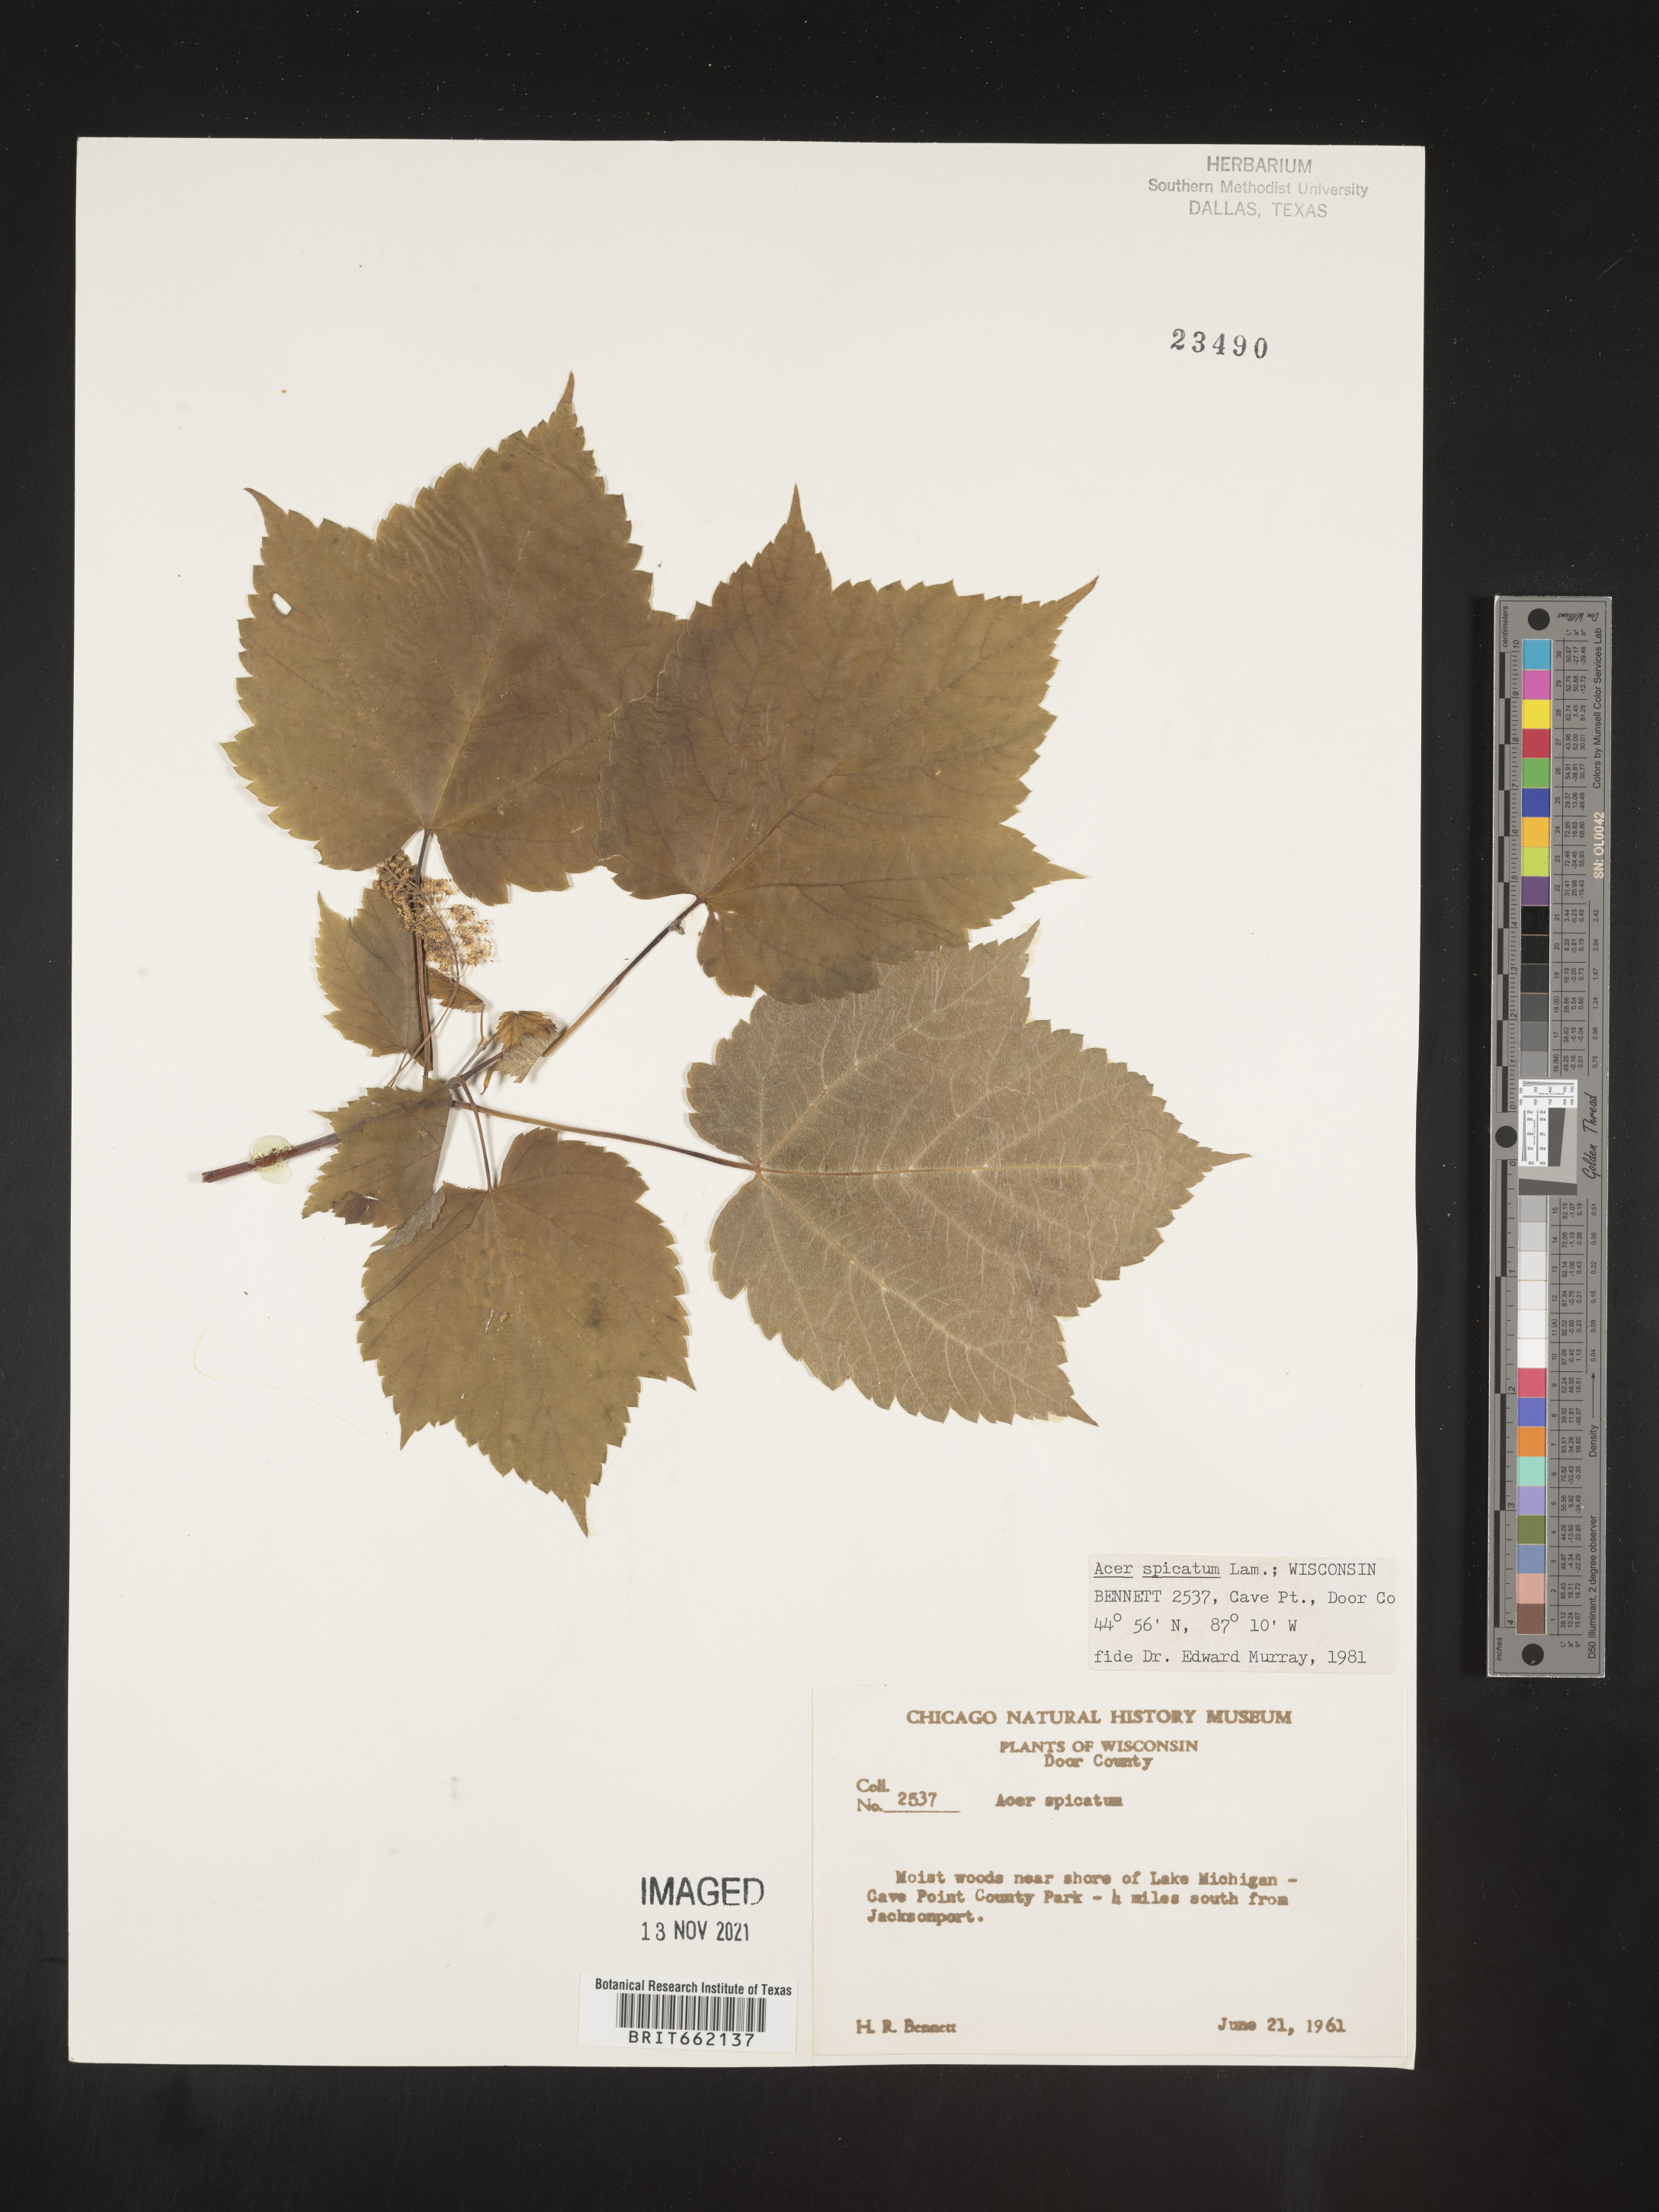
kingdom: Plantae
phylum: Tracheophyta
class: Magnoliopsida
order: Sapindales
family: Sapindaceae
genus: Acer
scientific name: Acer spicatum
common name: Mountain maple
